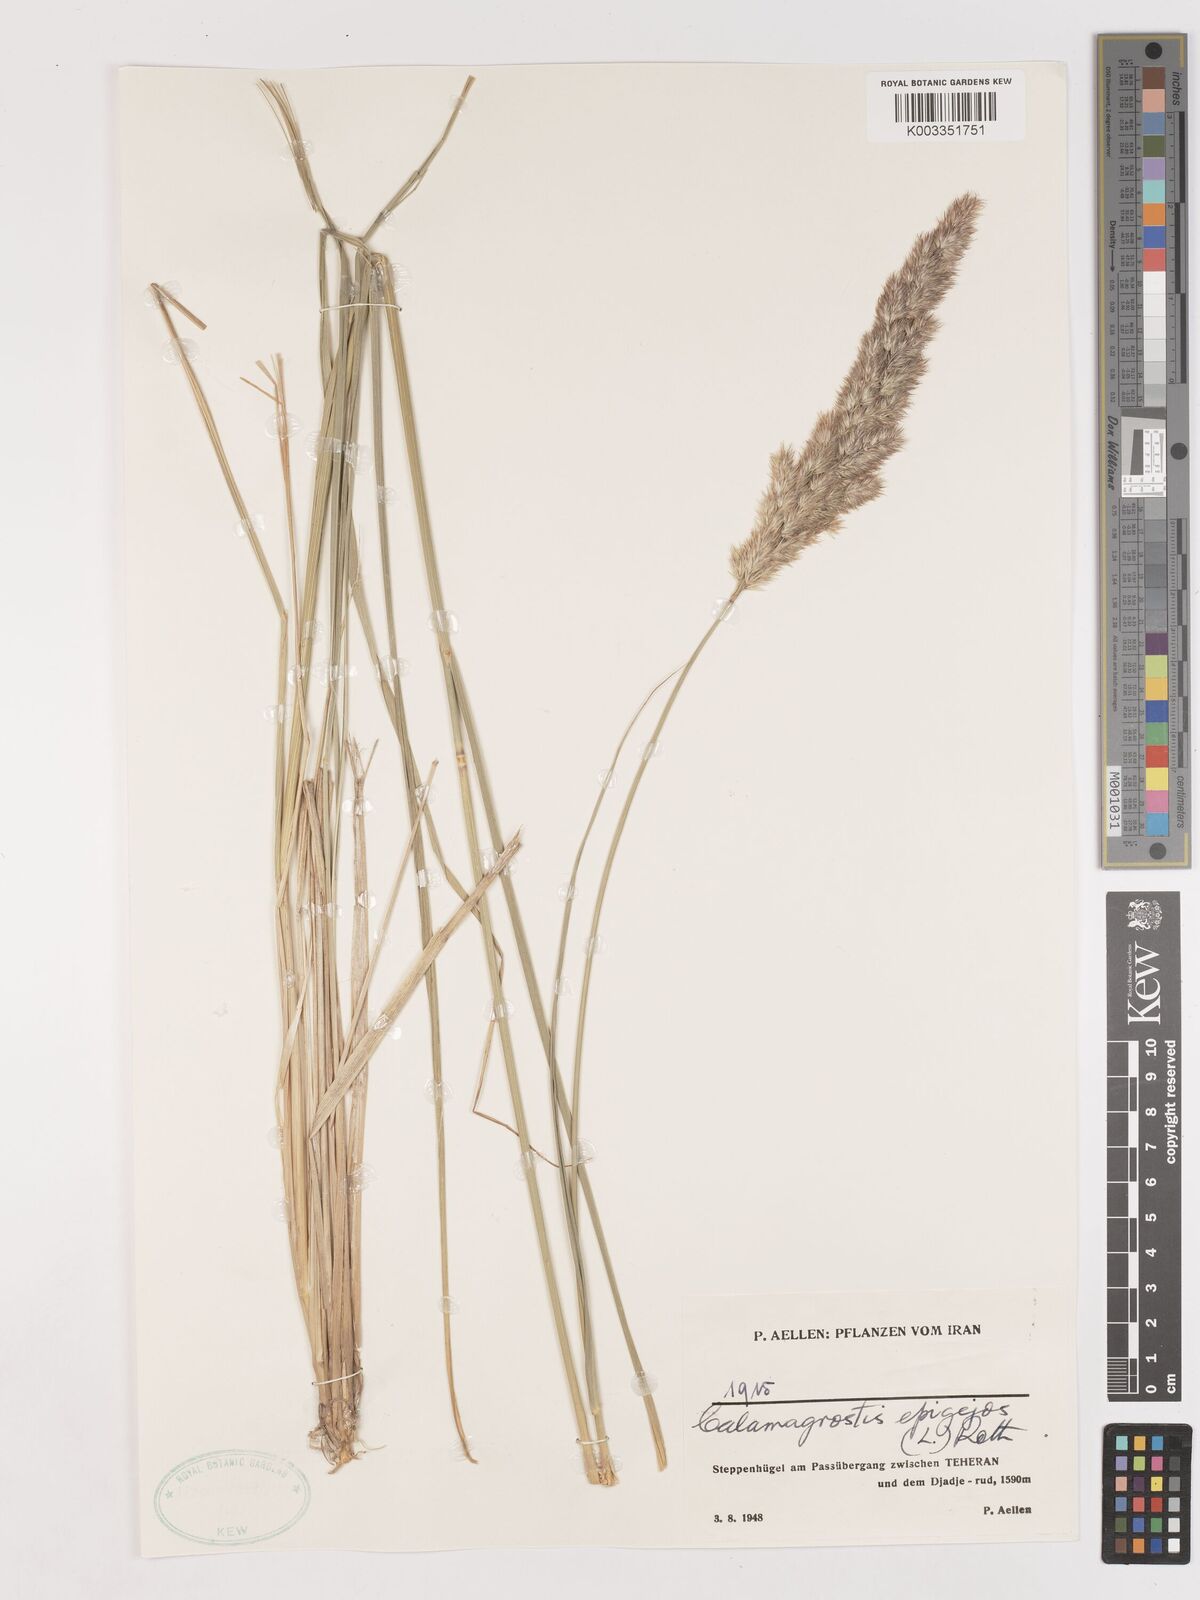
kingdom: Plantae
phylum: Tracheophyta
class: Liliopsida
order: Poales
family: Poaceae
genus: Calamagrostis
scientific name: Calamagrostis
